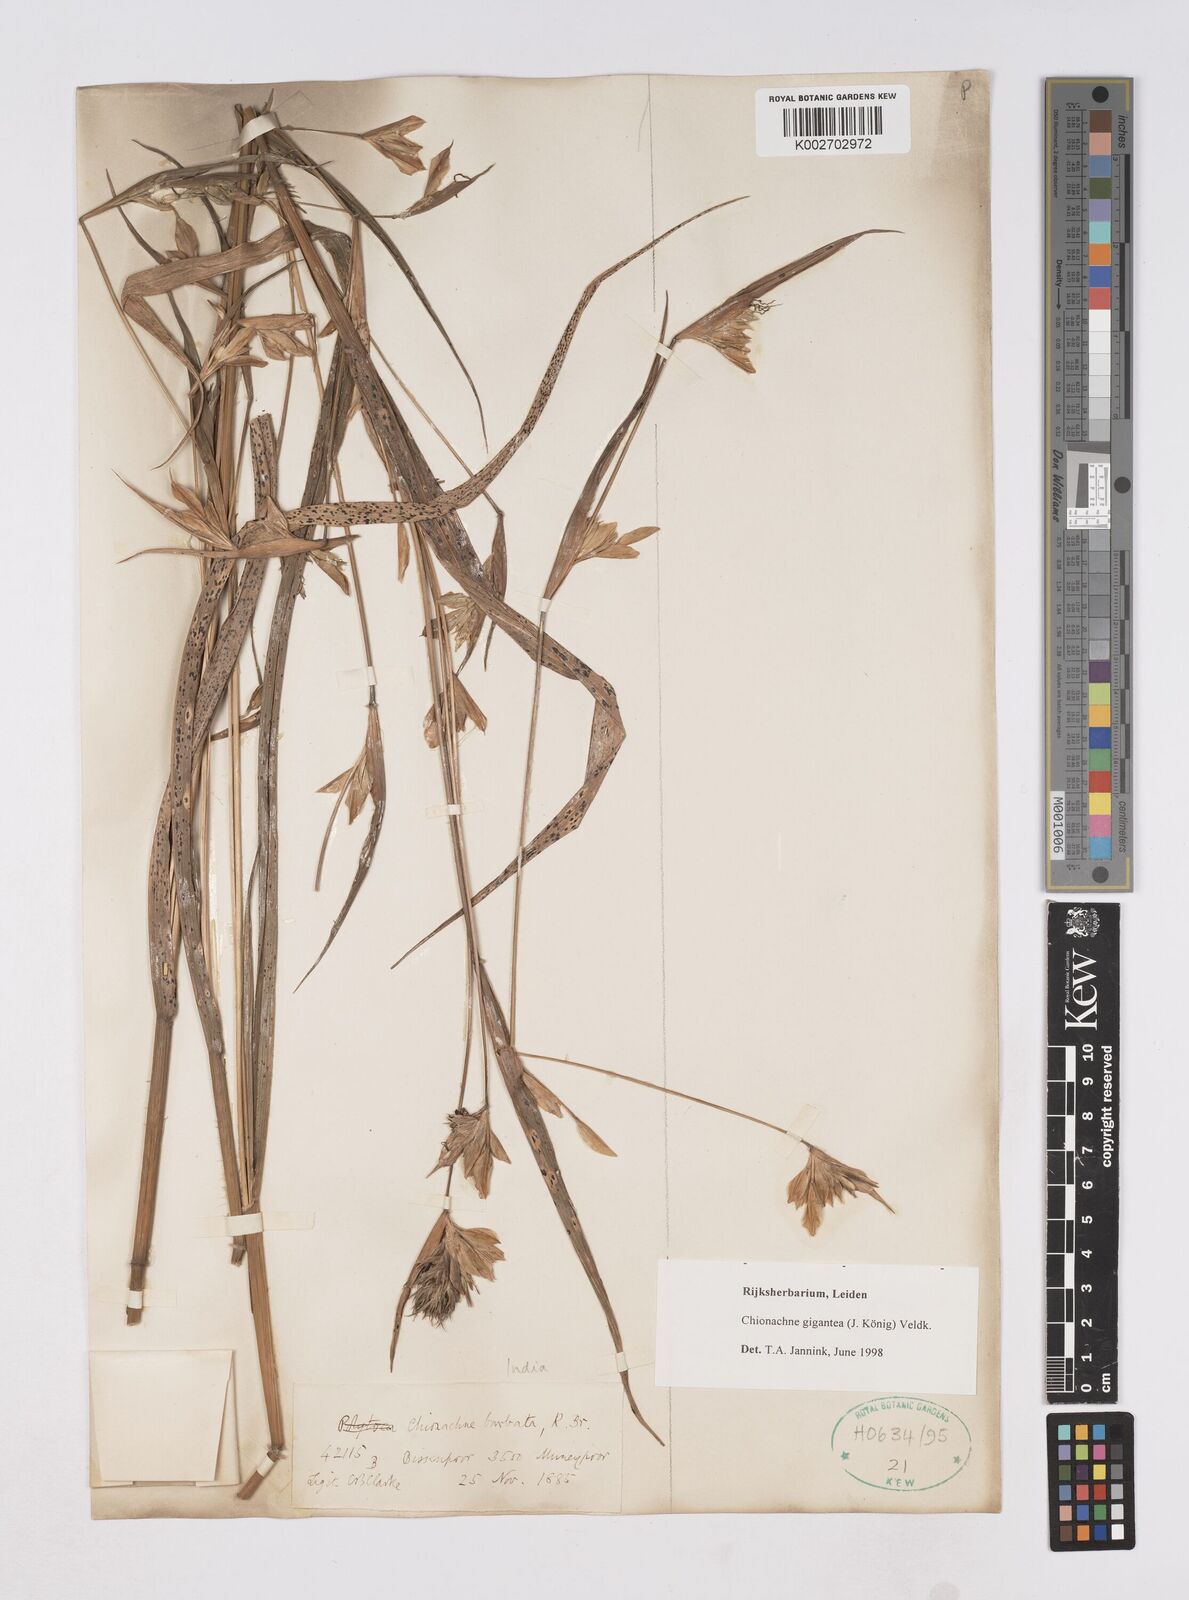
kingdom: Plantae
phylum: Tracheophyta
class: Liliopsida
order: Poales
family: Poaceae
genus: Polytoca
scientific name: Polytoca gigantea
